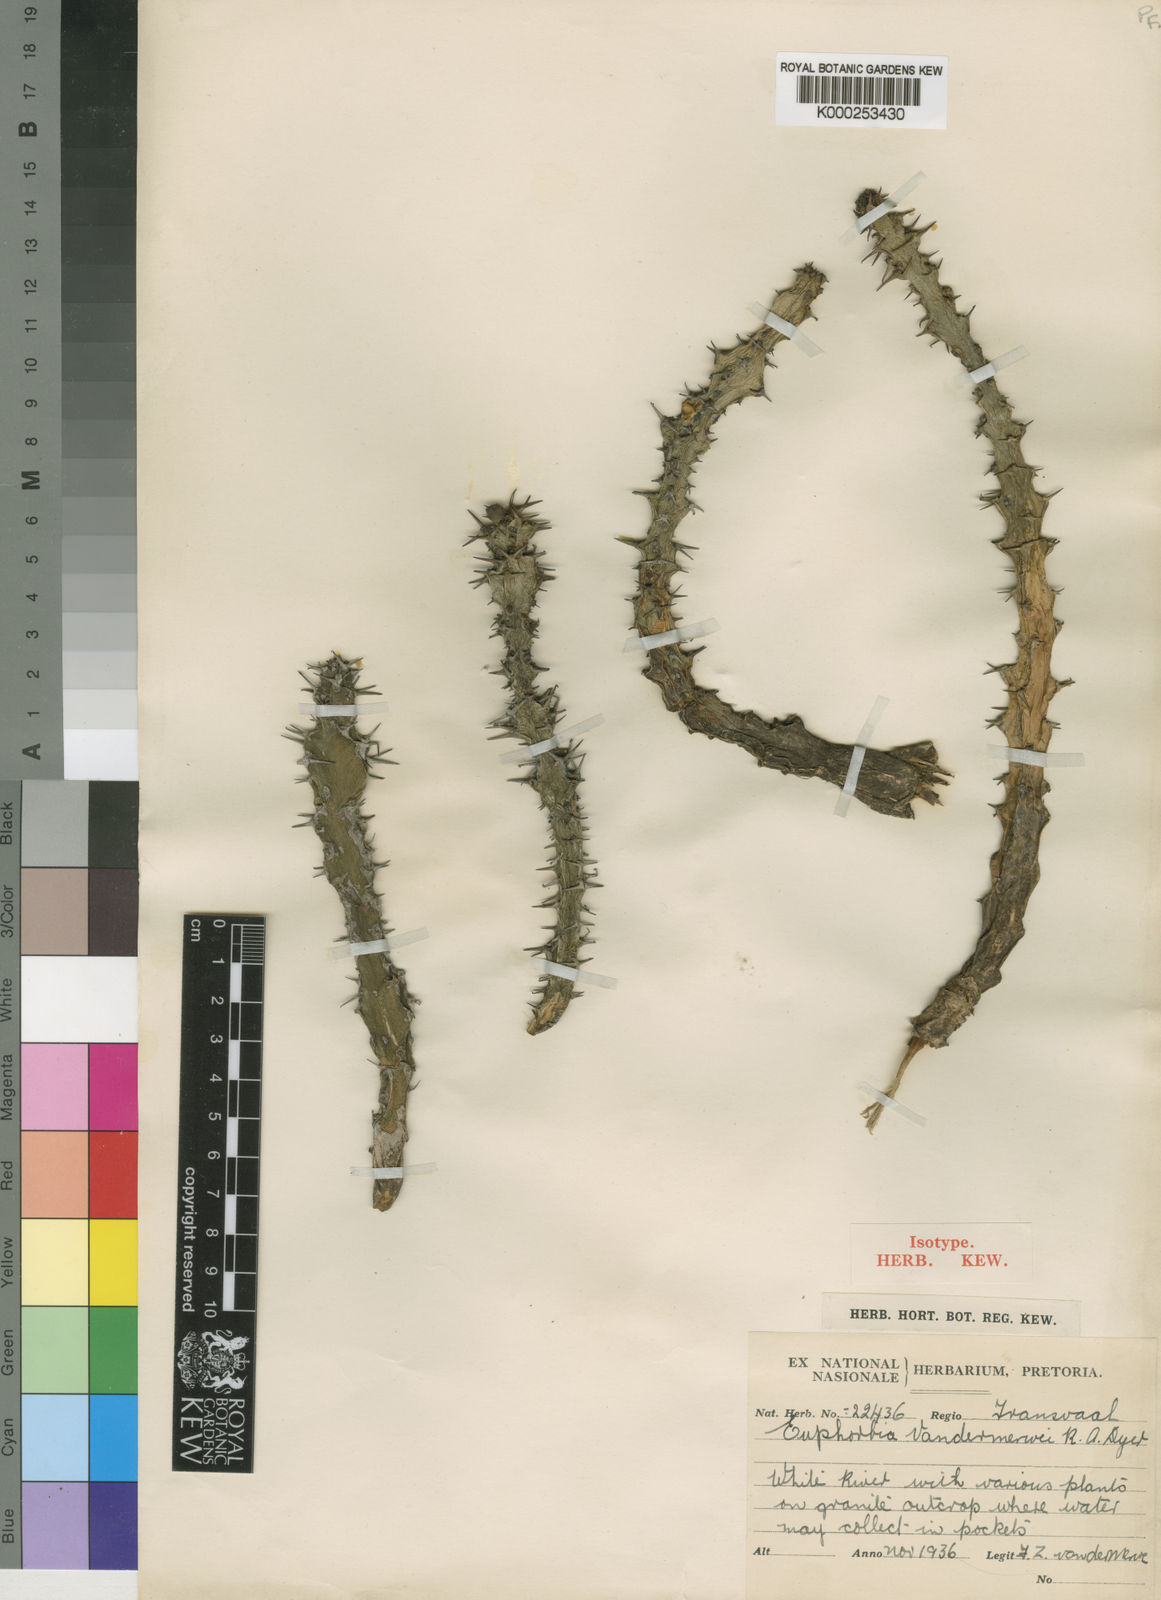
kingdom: Plantae
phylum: Tracheophyta
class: Magnoliopsida
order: Malpighiales
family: Euphorbiaceae
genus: Euphorbia
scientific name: Euphorbia vandermerwei
